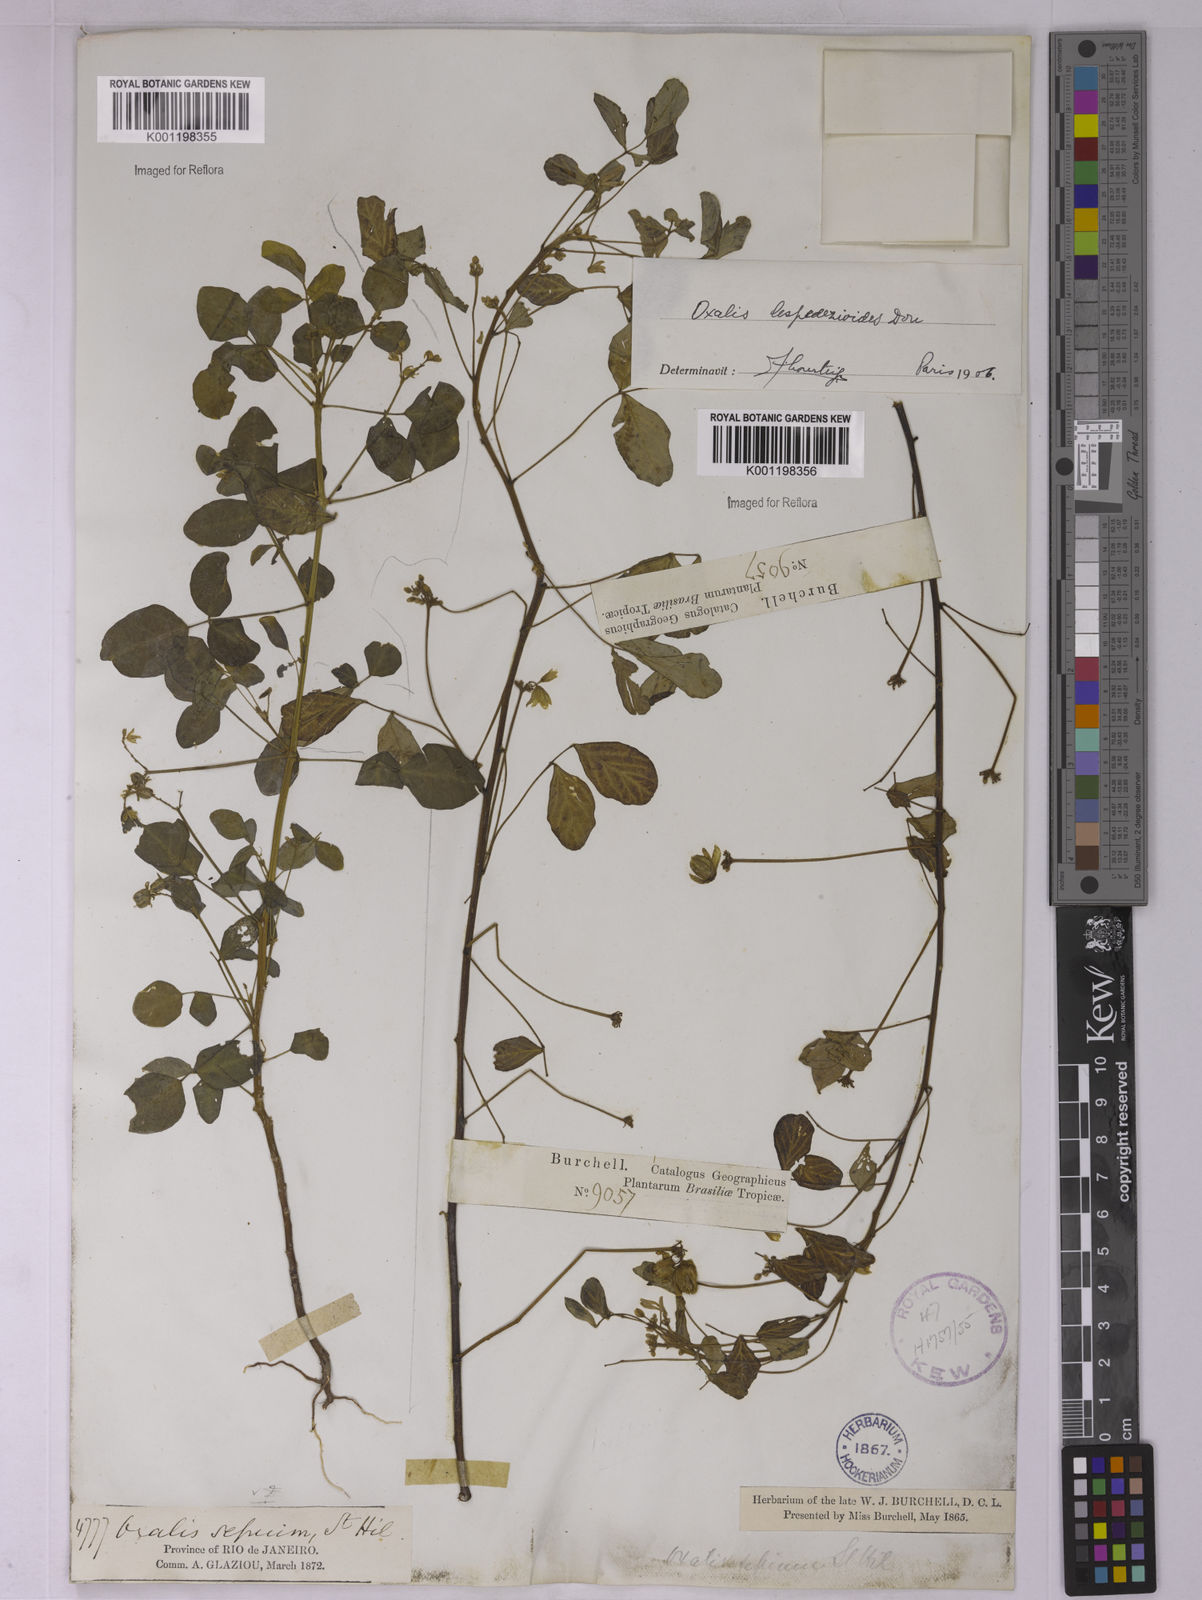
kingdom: Plantae
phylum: Tracheophyta
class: Magnoliopsida
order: Oxalidales
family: Oxalidaceae
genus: Oxalis
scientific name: Oxalis lespedezioides
